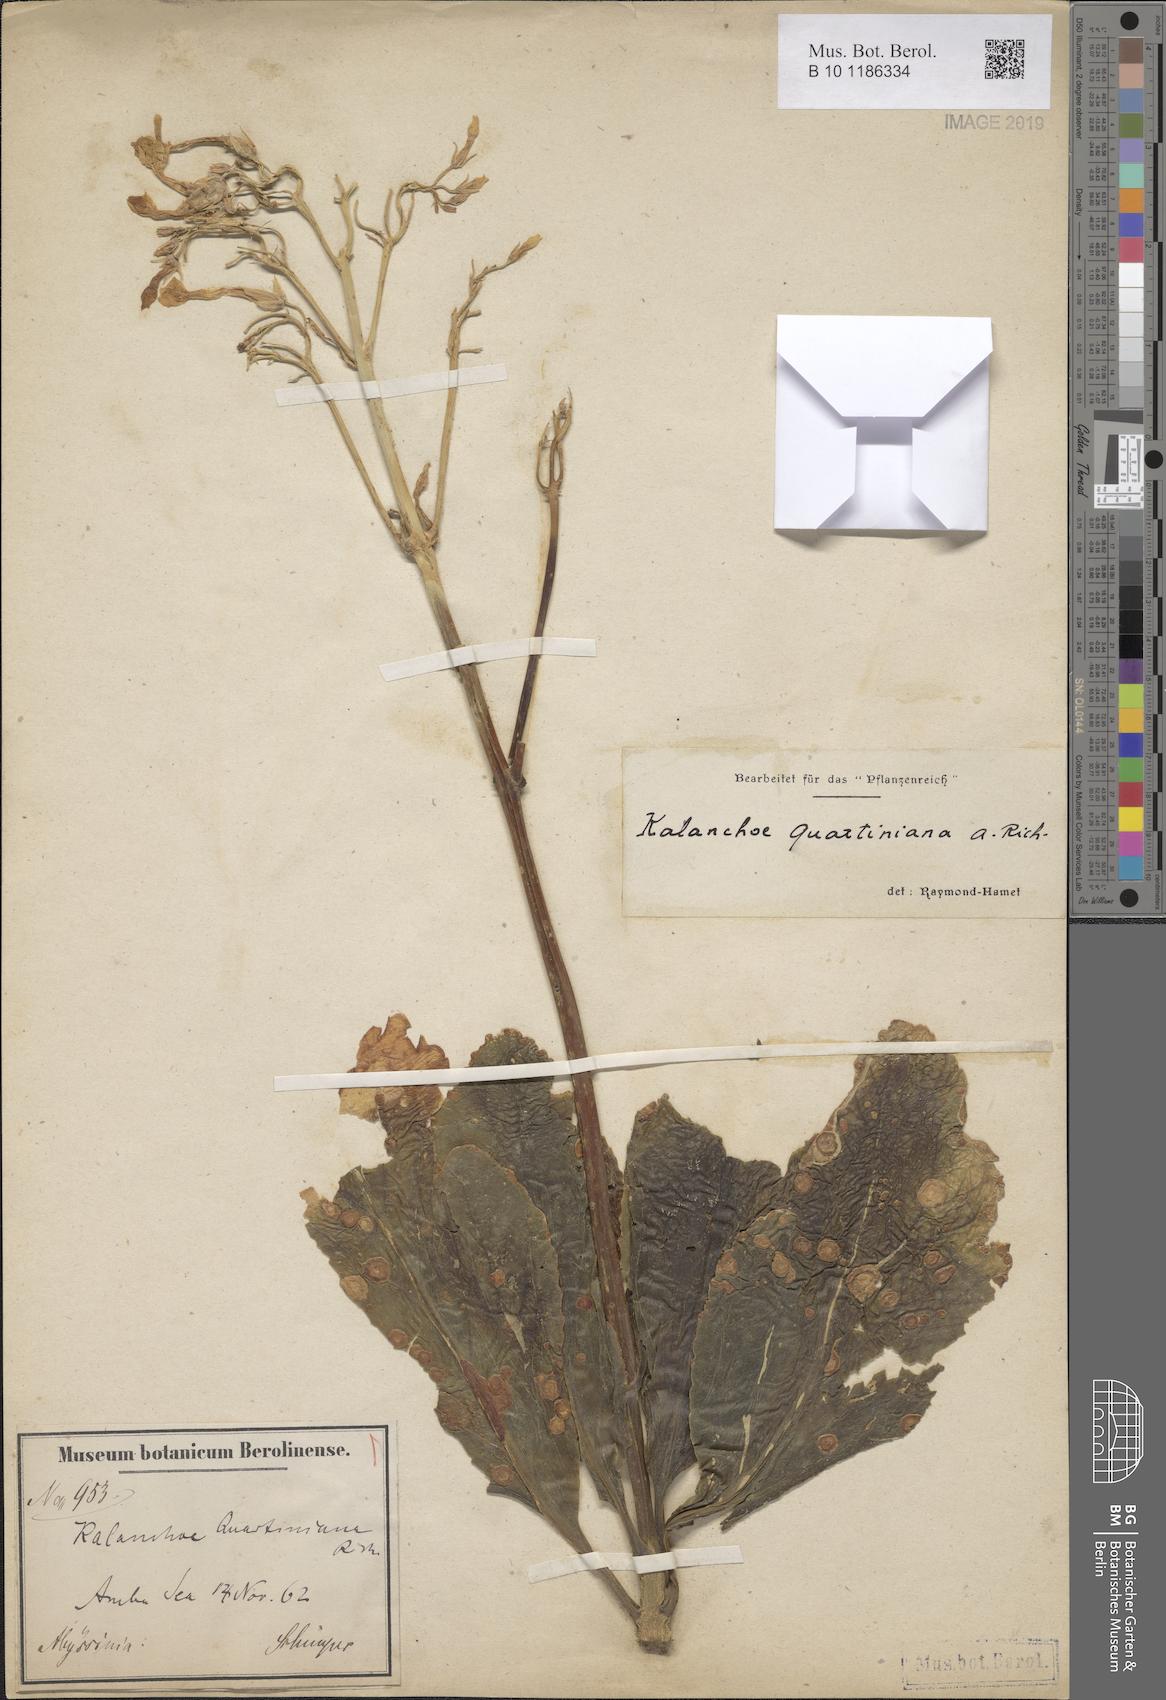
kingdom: Plantae
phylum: Tracheophyta
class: Magnoliopsida
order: Saxifragales
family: Crassulaceae
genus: Kalanchoe
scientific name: Kalanchoe quartiniana
